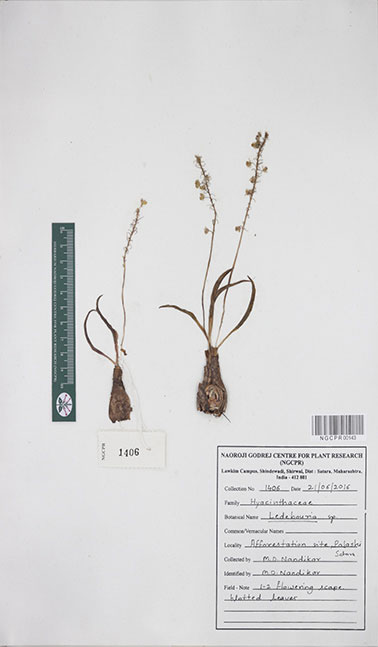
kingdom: Plantae
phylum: Tracheophyta
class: Liliopsida
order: Asparagales
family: Asparagaceae
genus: Ledebouria
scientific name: Ledebouria
